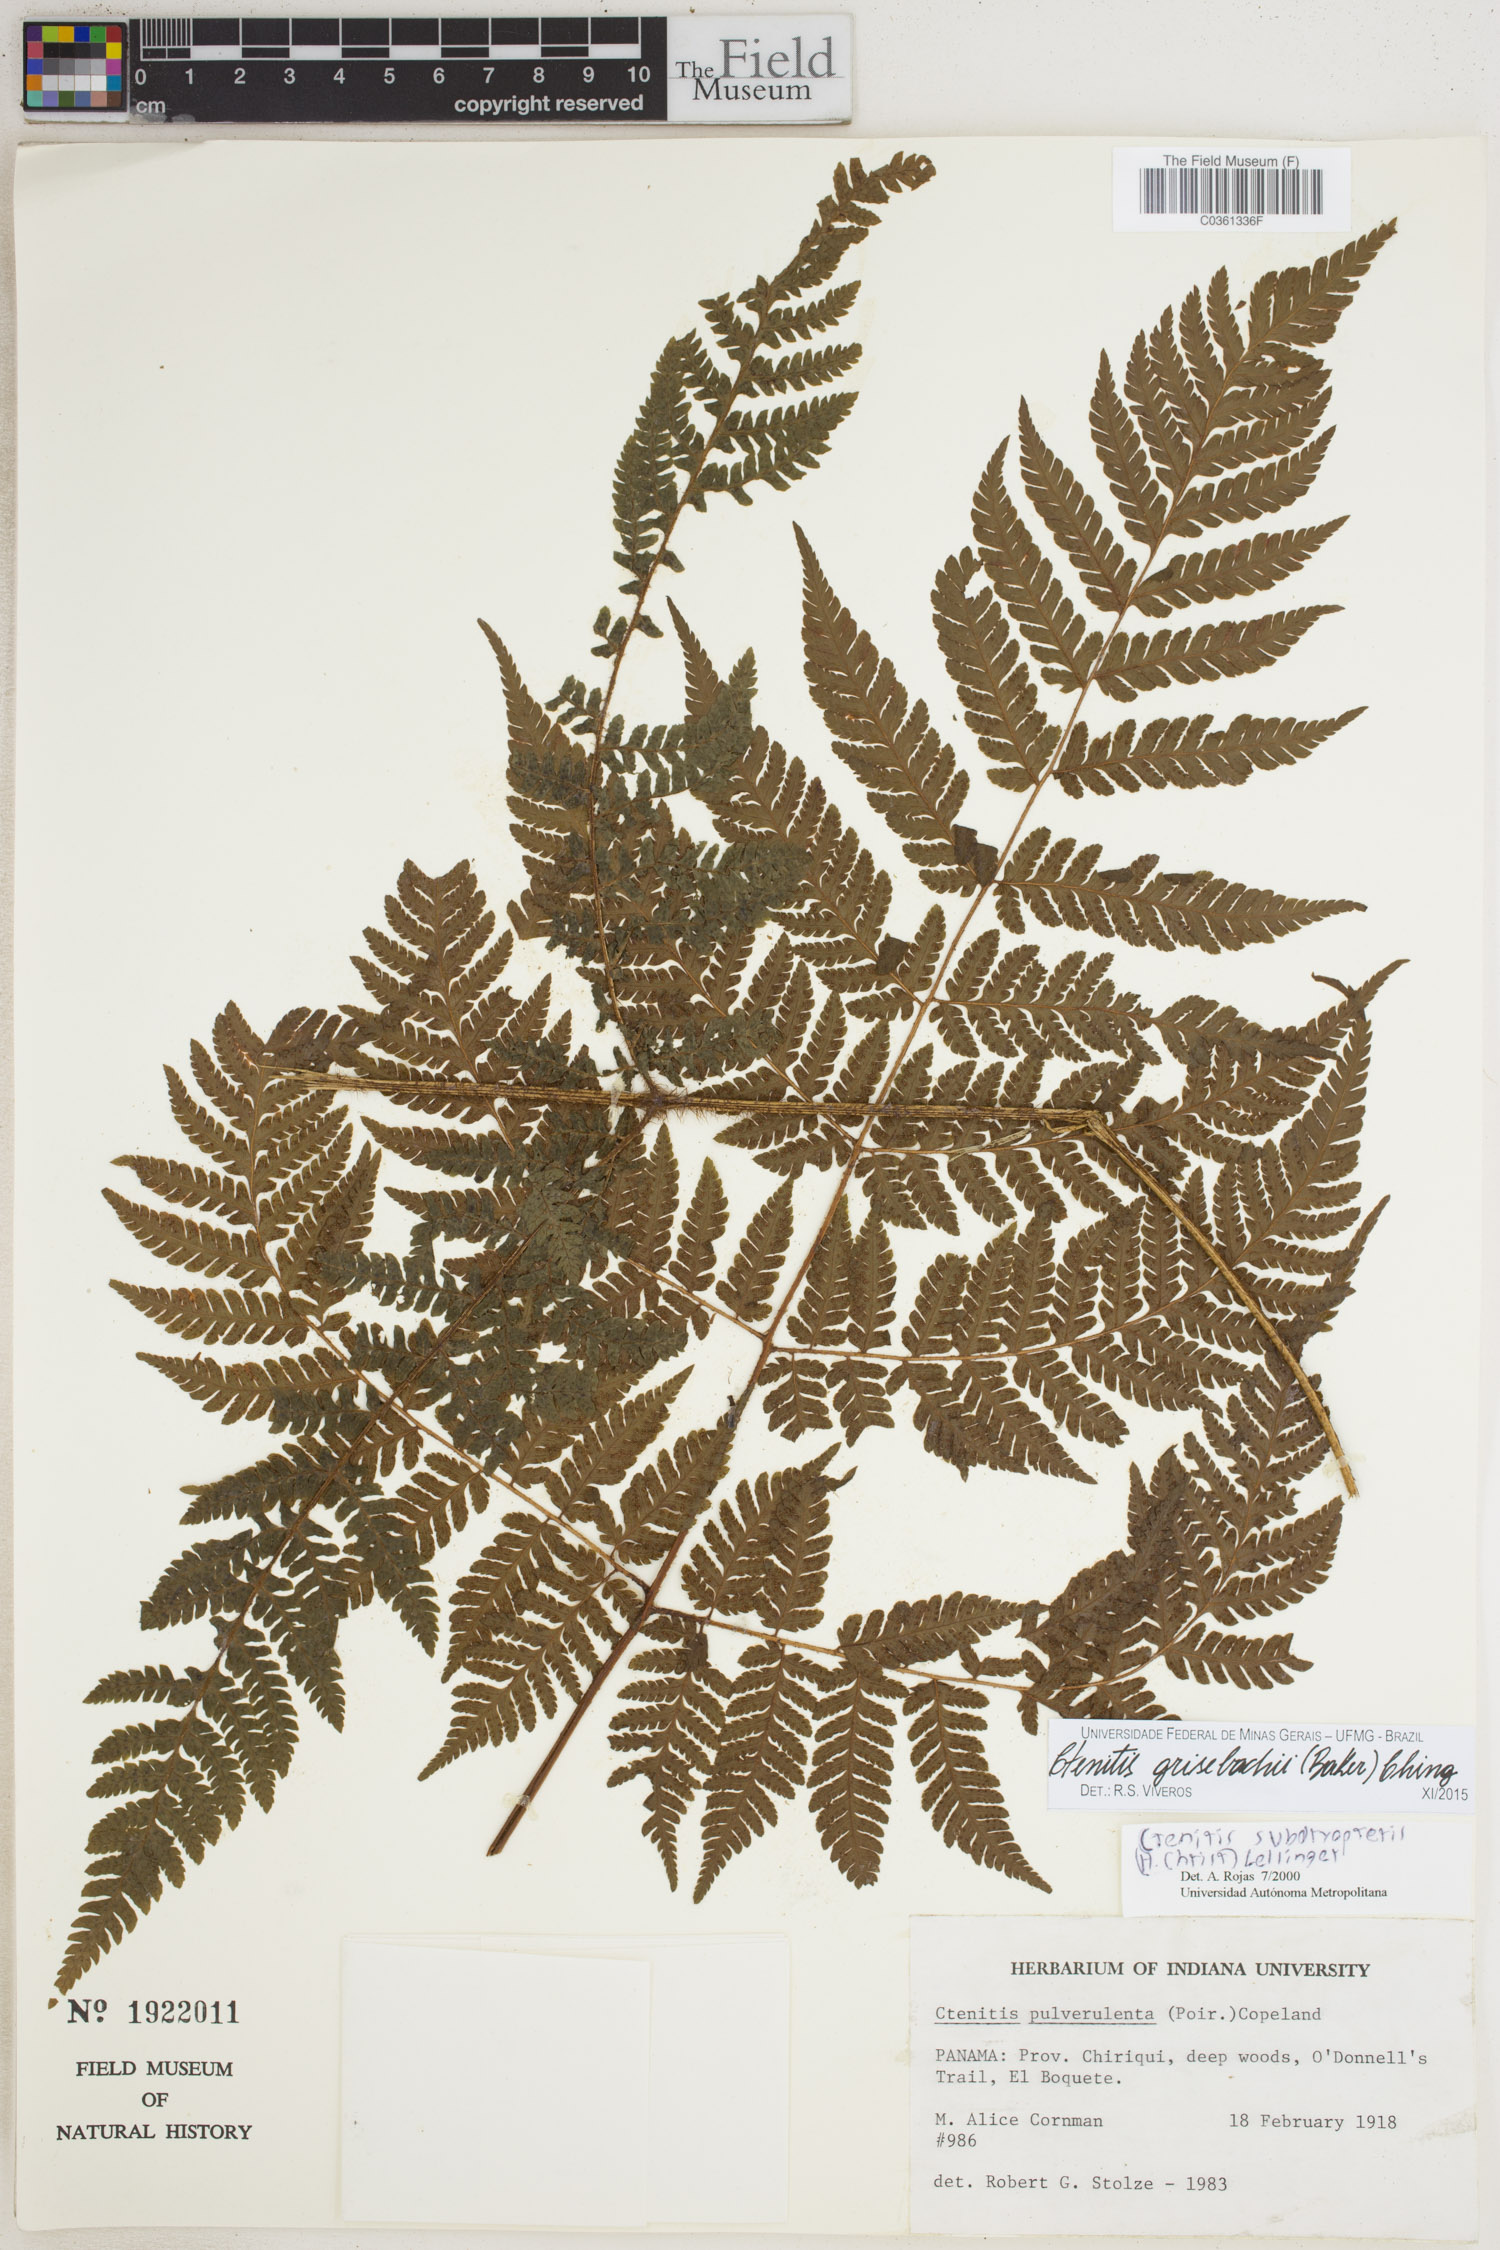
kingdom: Plantae
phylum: Tracheophyta
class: Polypodiopsida
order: Polypodiales
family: Dryopteridaceae
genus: Ctenitis
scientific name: Ctenitis grisebachii
